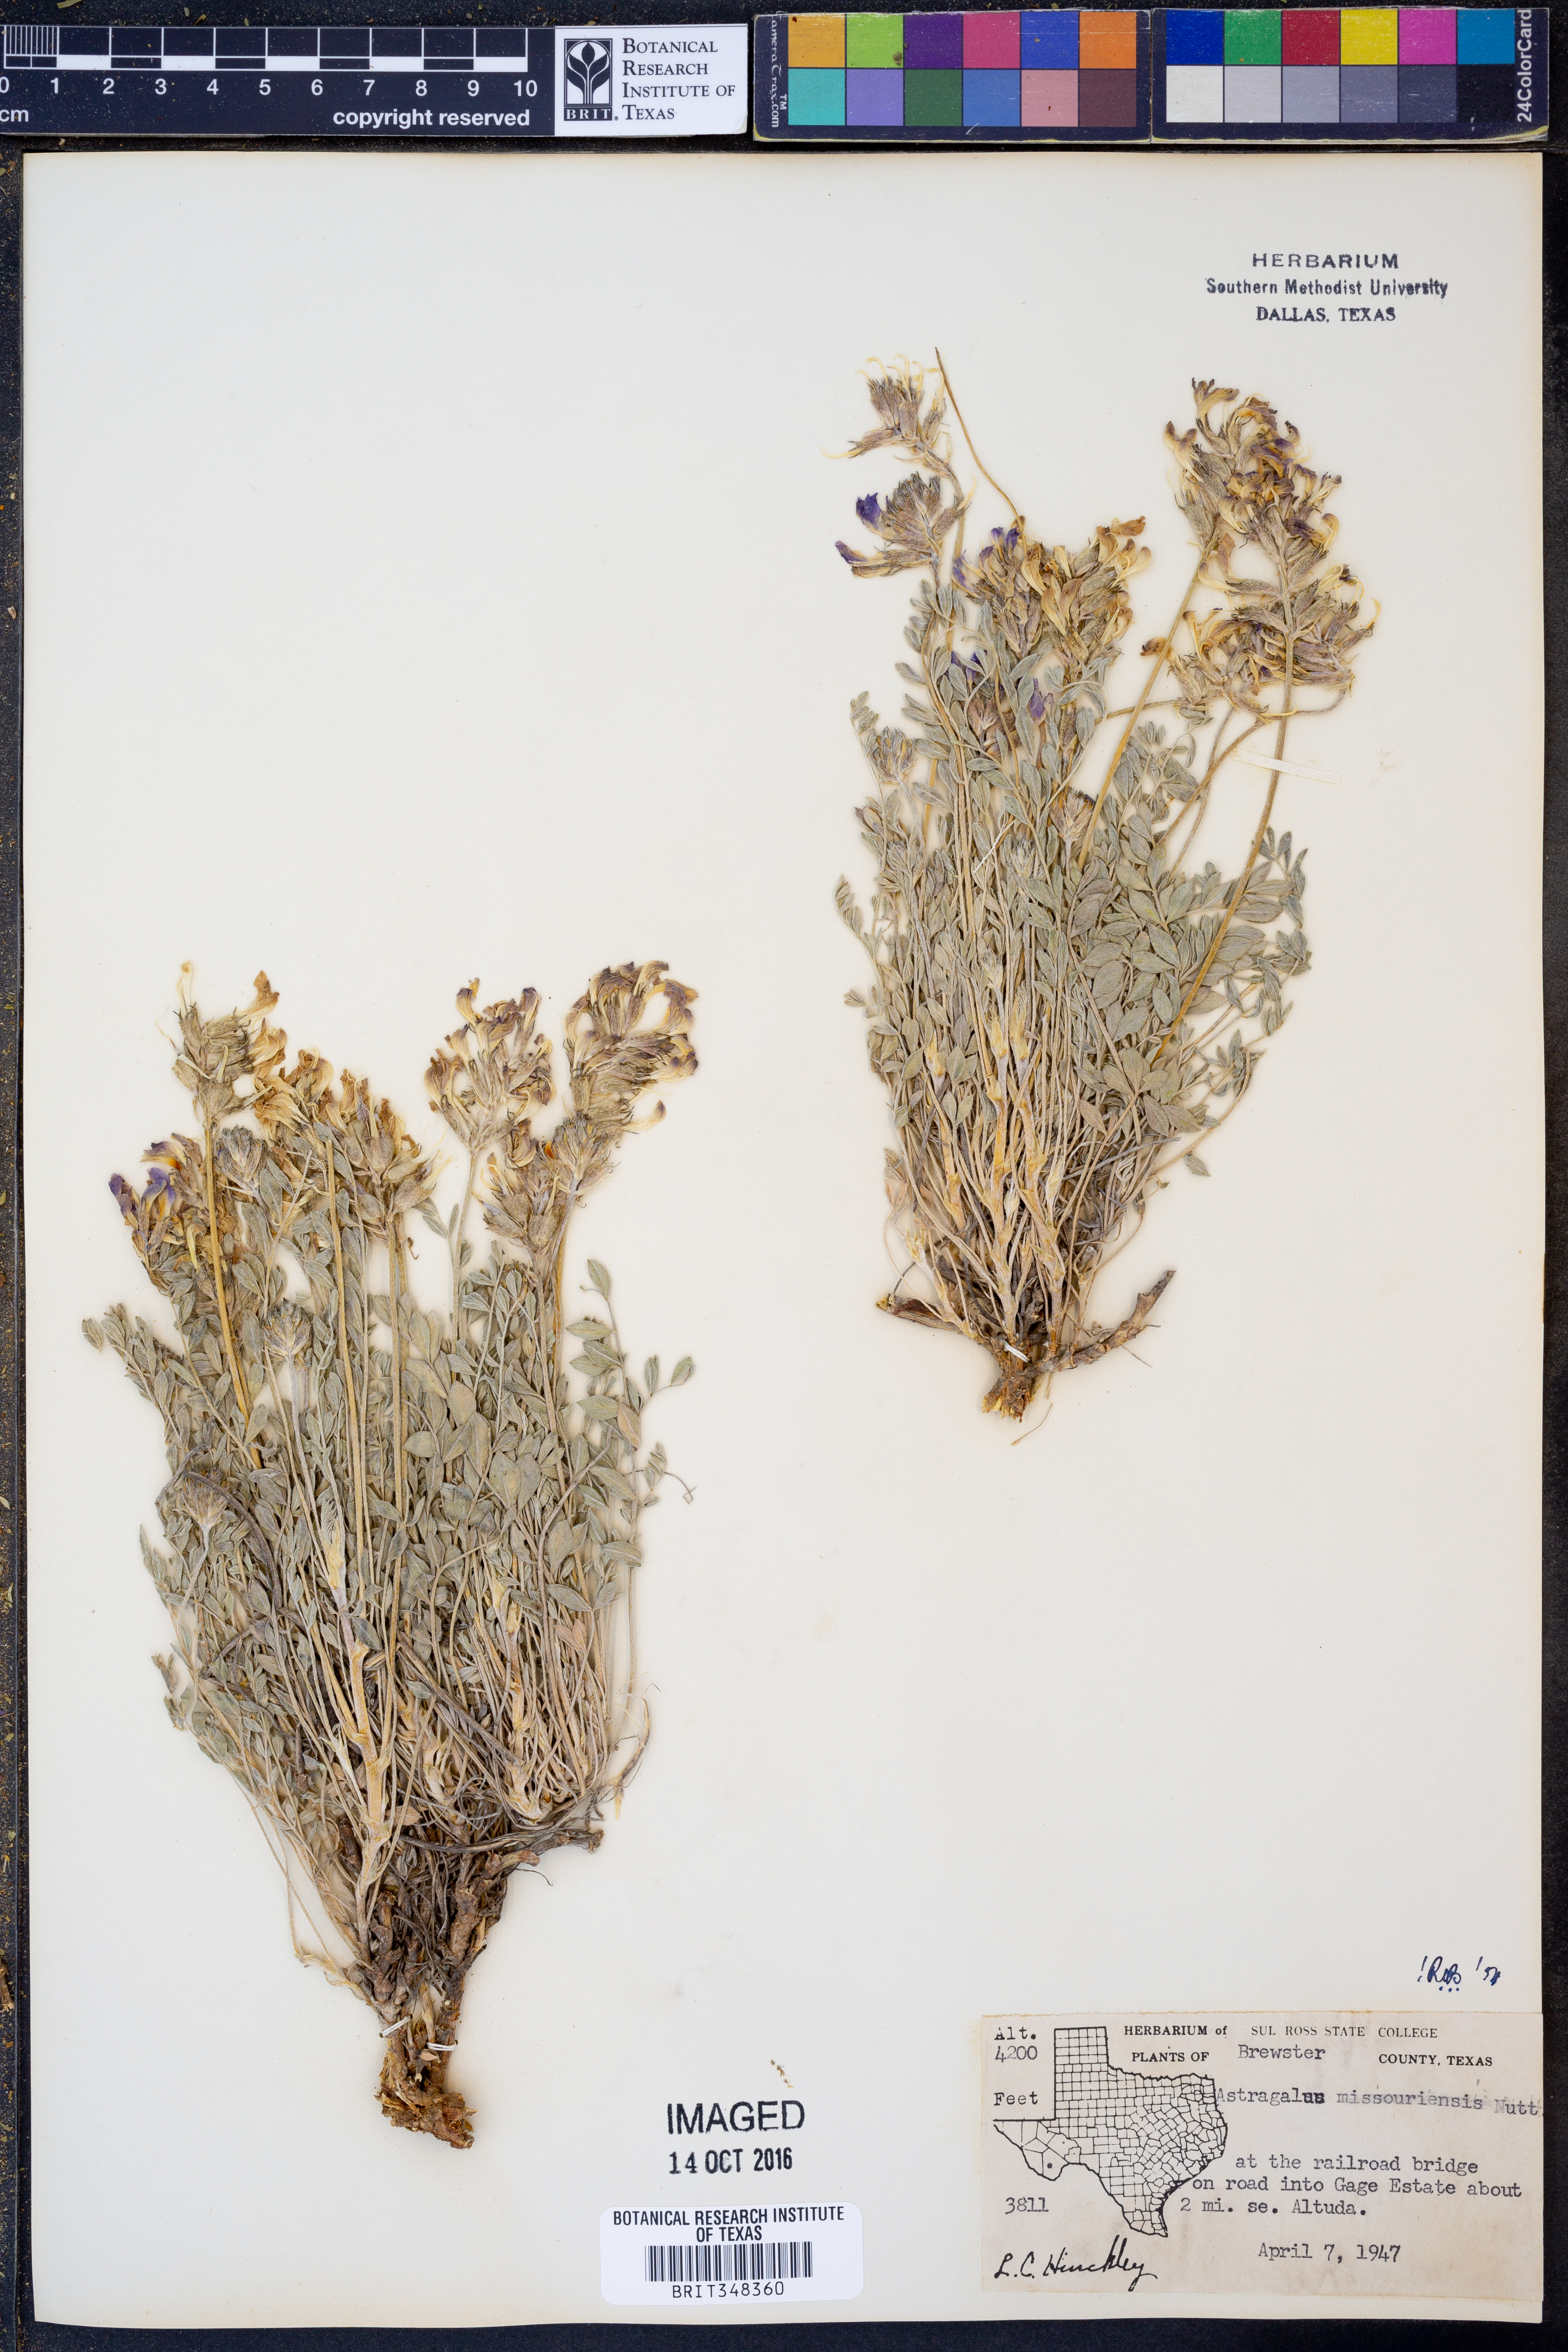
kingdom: Plantae
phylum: Tracheophyta
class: Magnoliopsida
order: Fabales
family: Fabaceae
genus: Astragalus
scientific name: Astragalus missouriensis
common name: Missouri milk-vetch
